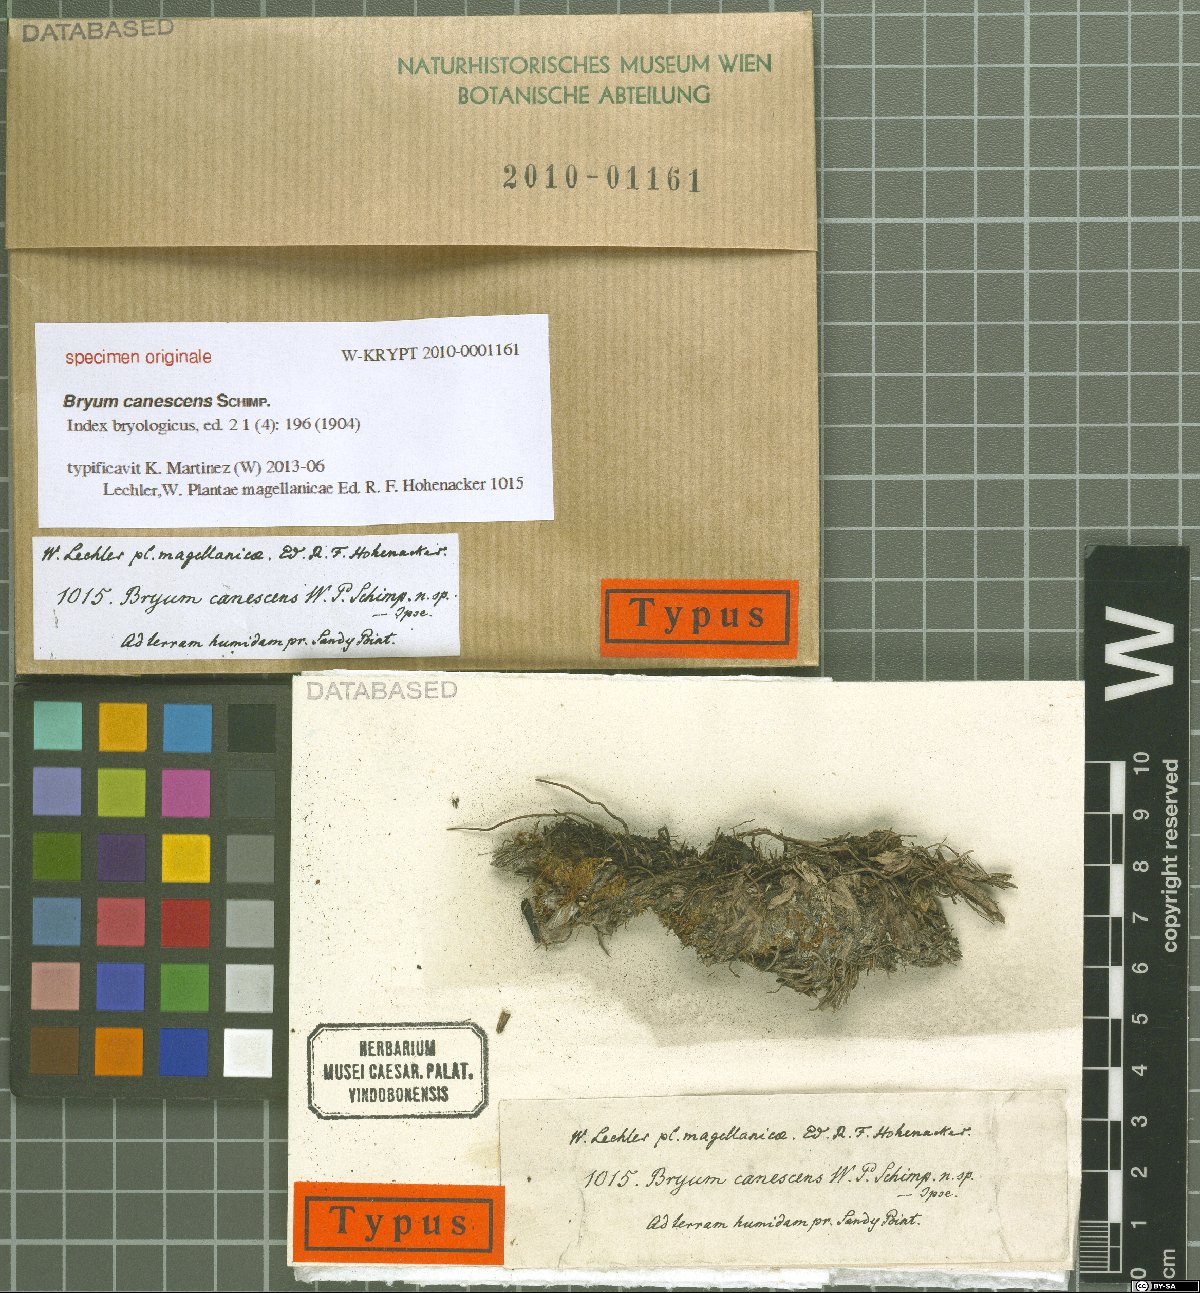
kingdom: Plantae
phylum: Bryophyta
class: Bryopsida
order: Bryales
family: Bryaceae
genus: Bryum
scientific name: Bryum
